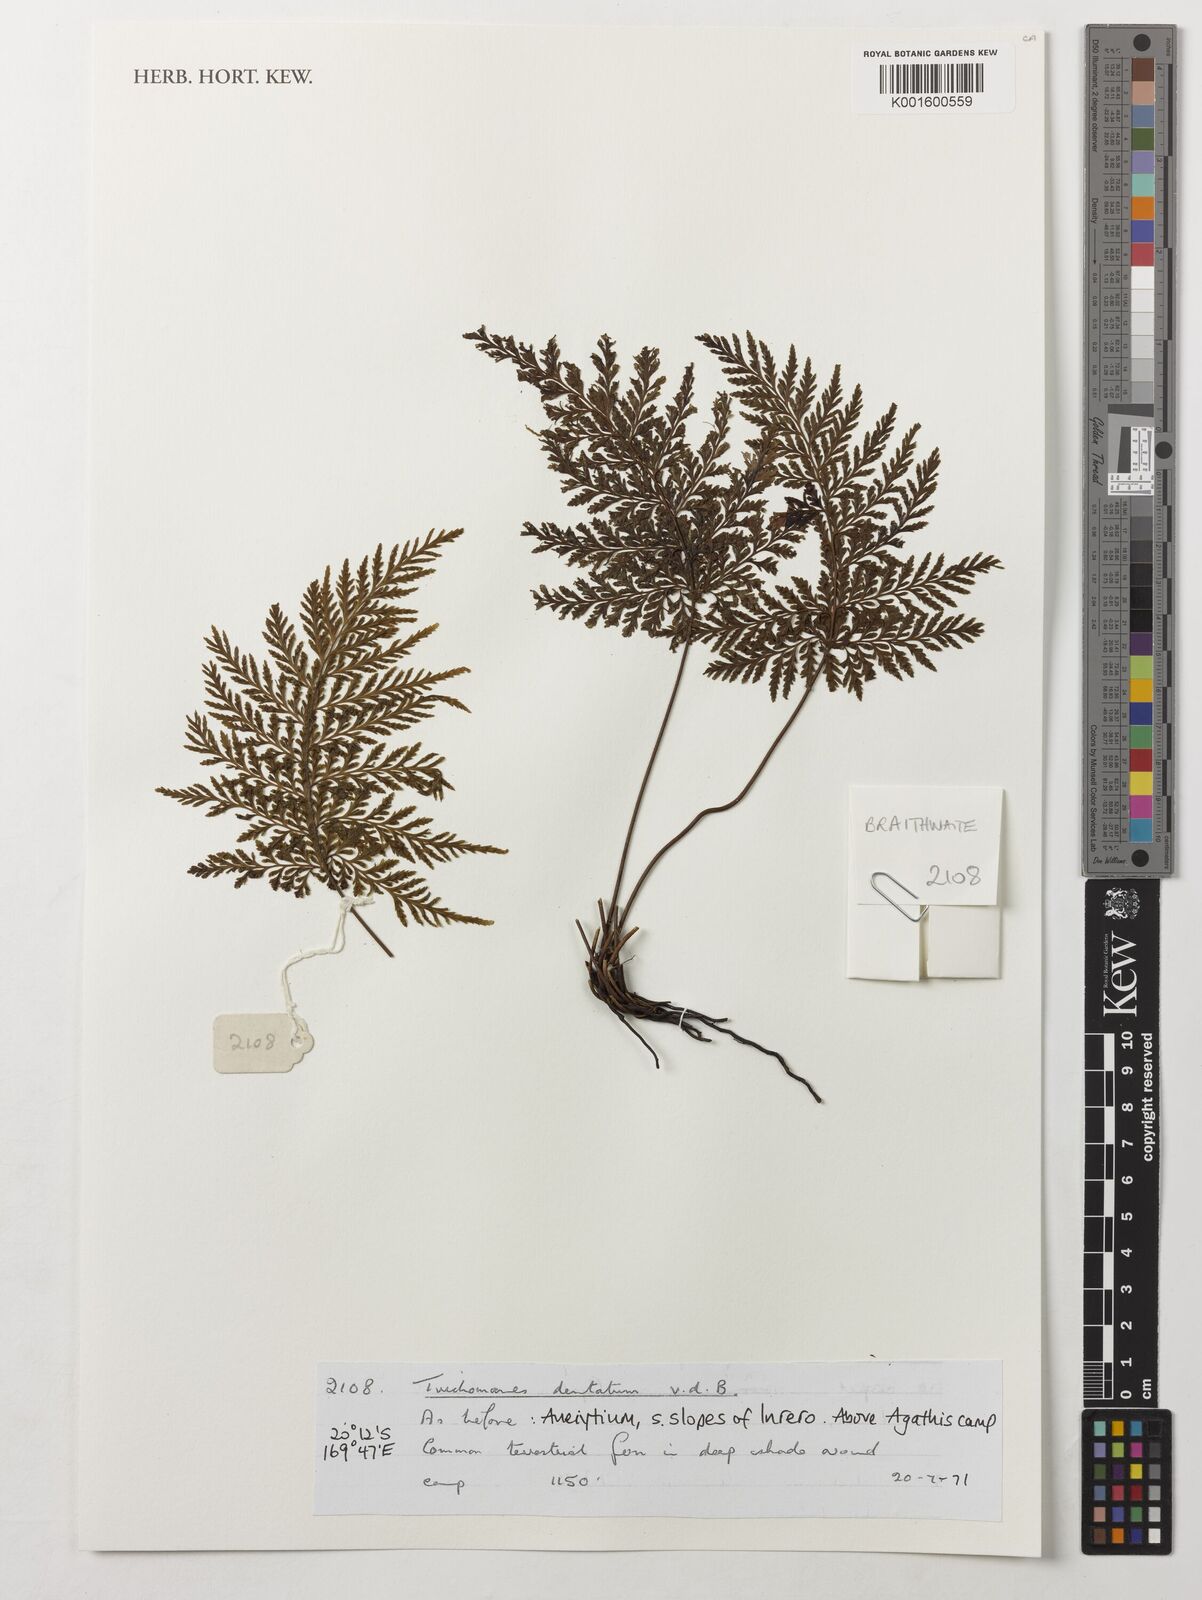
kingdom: Plantae
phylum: Tracheophyta
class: Polypodiopsida
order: Hymenophyllales
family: Hymenophyllaceae
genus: Abrodictyum
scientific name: Abrodictyum dentatum
